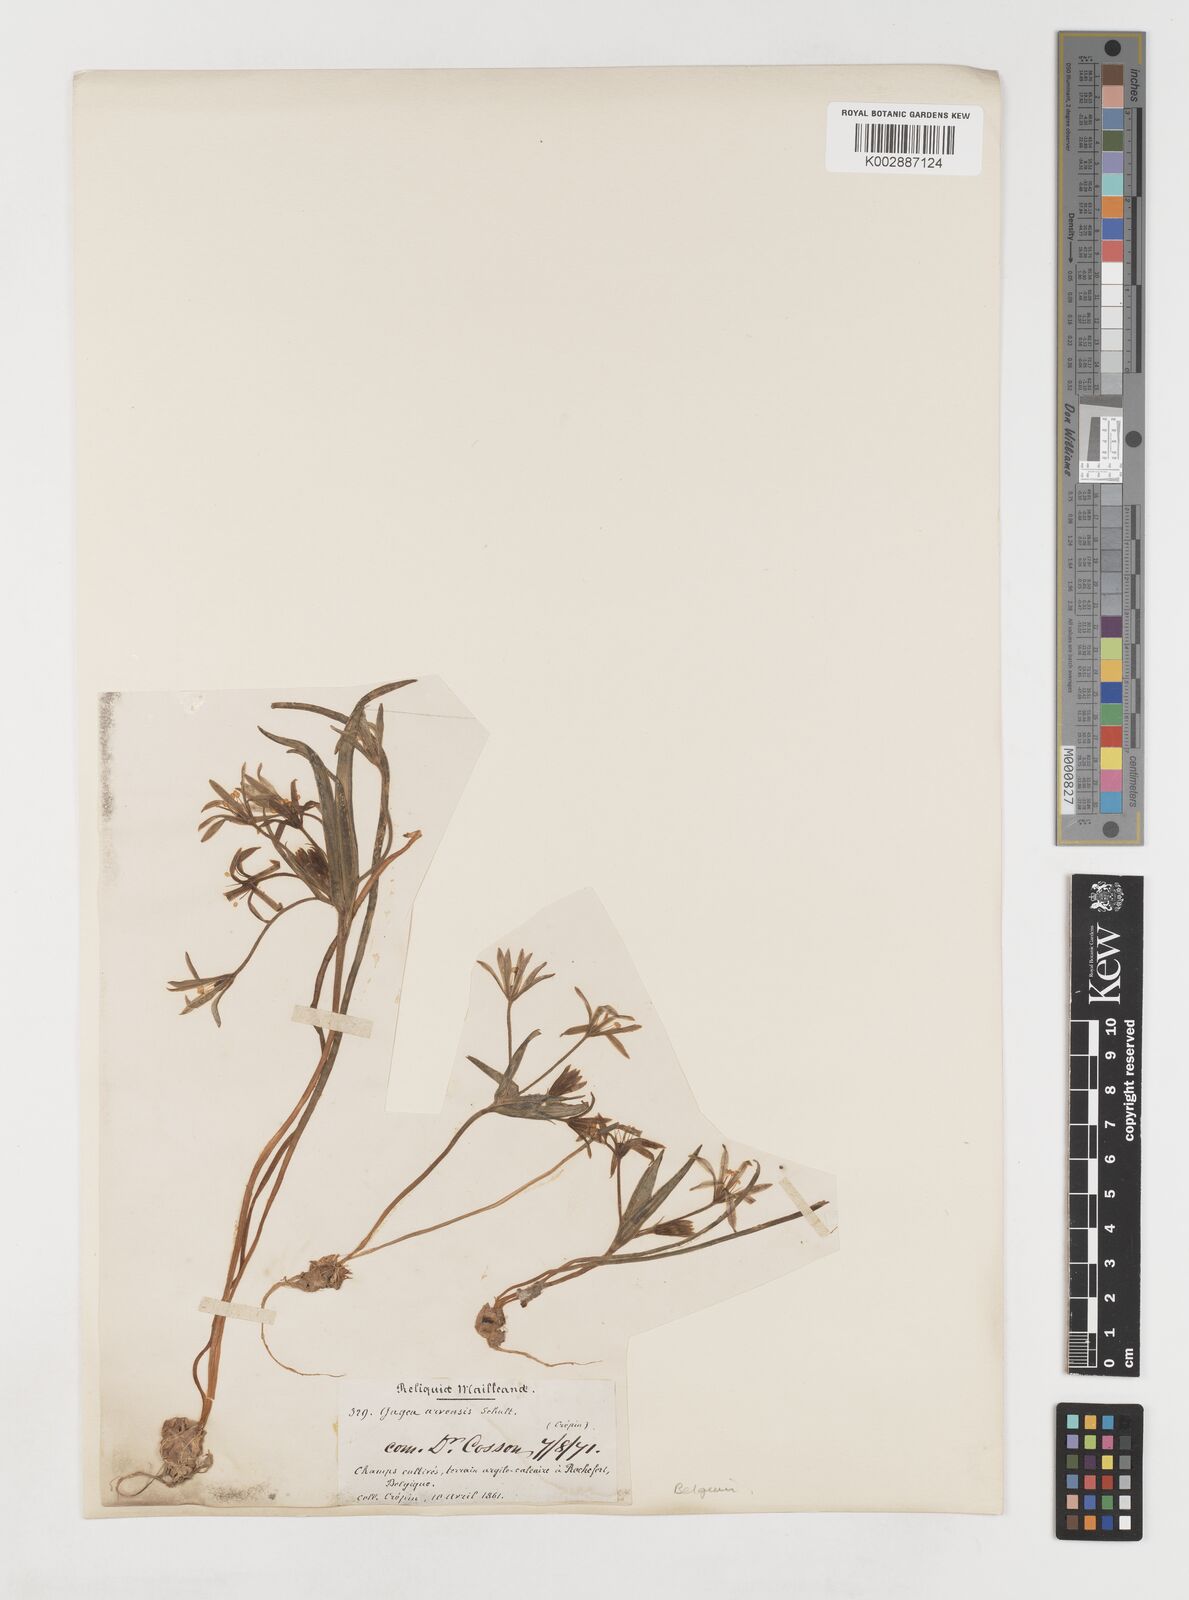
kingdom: Plantae
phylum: Tracheophyta
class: Liliopsida
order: Liliales
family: Liliaceae
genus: Gagea
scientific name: Gagea minima
